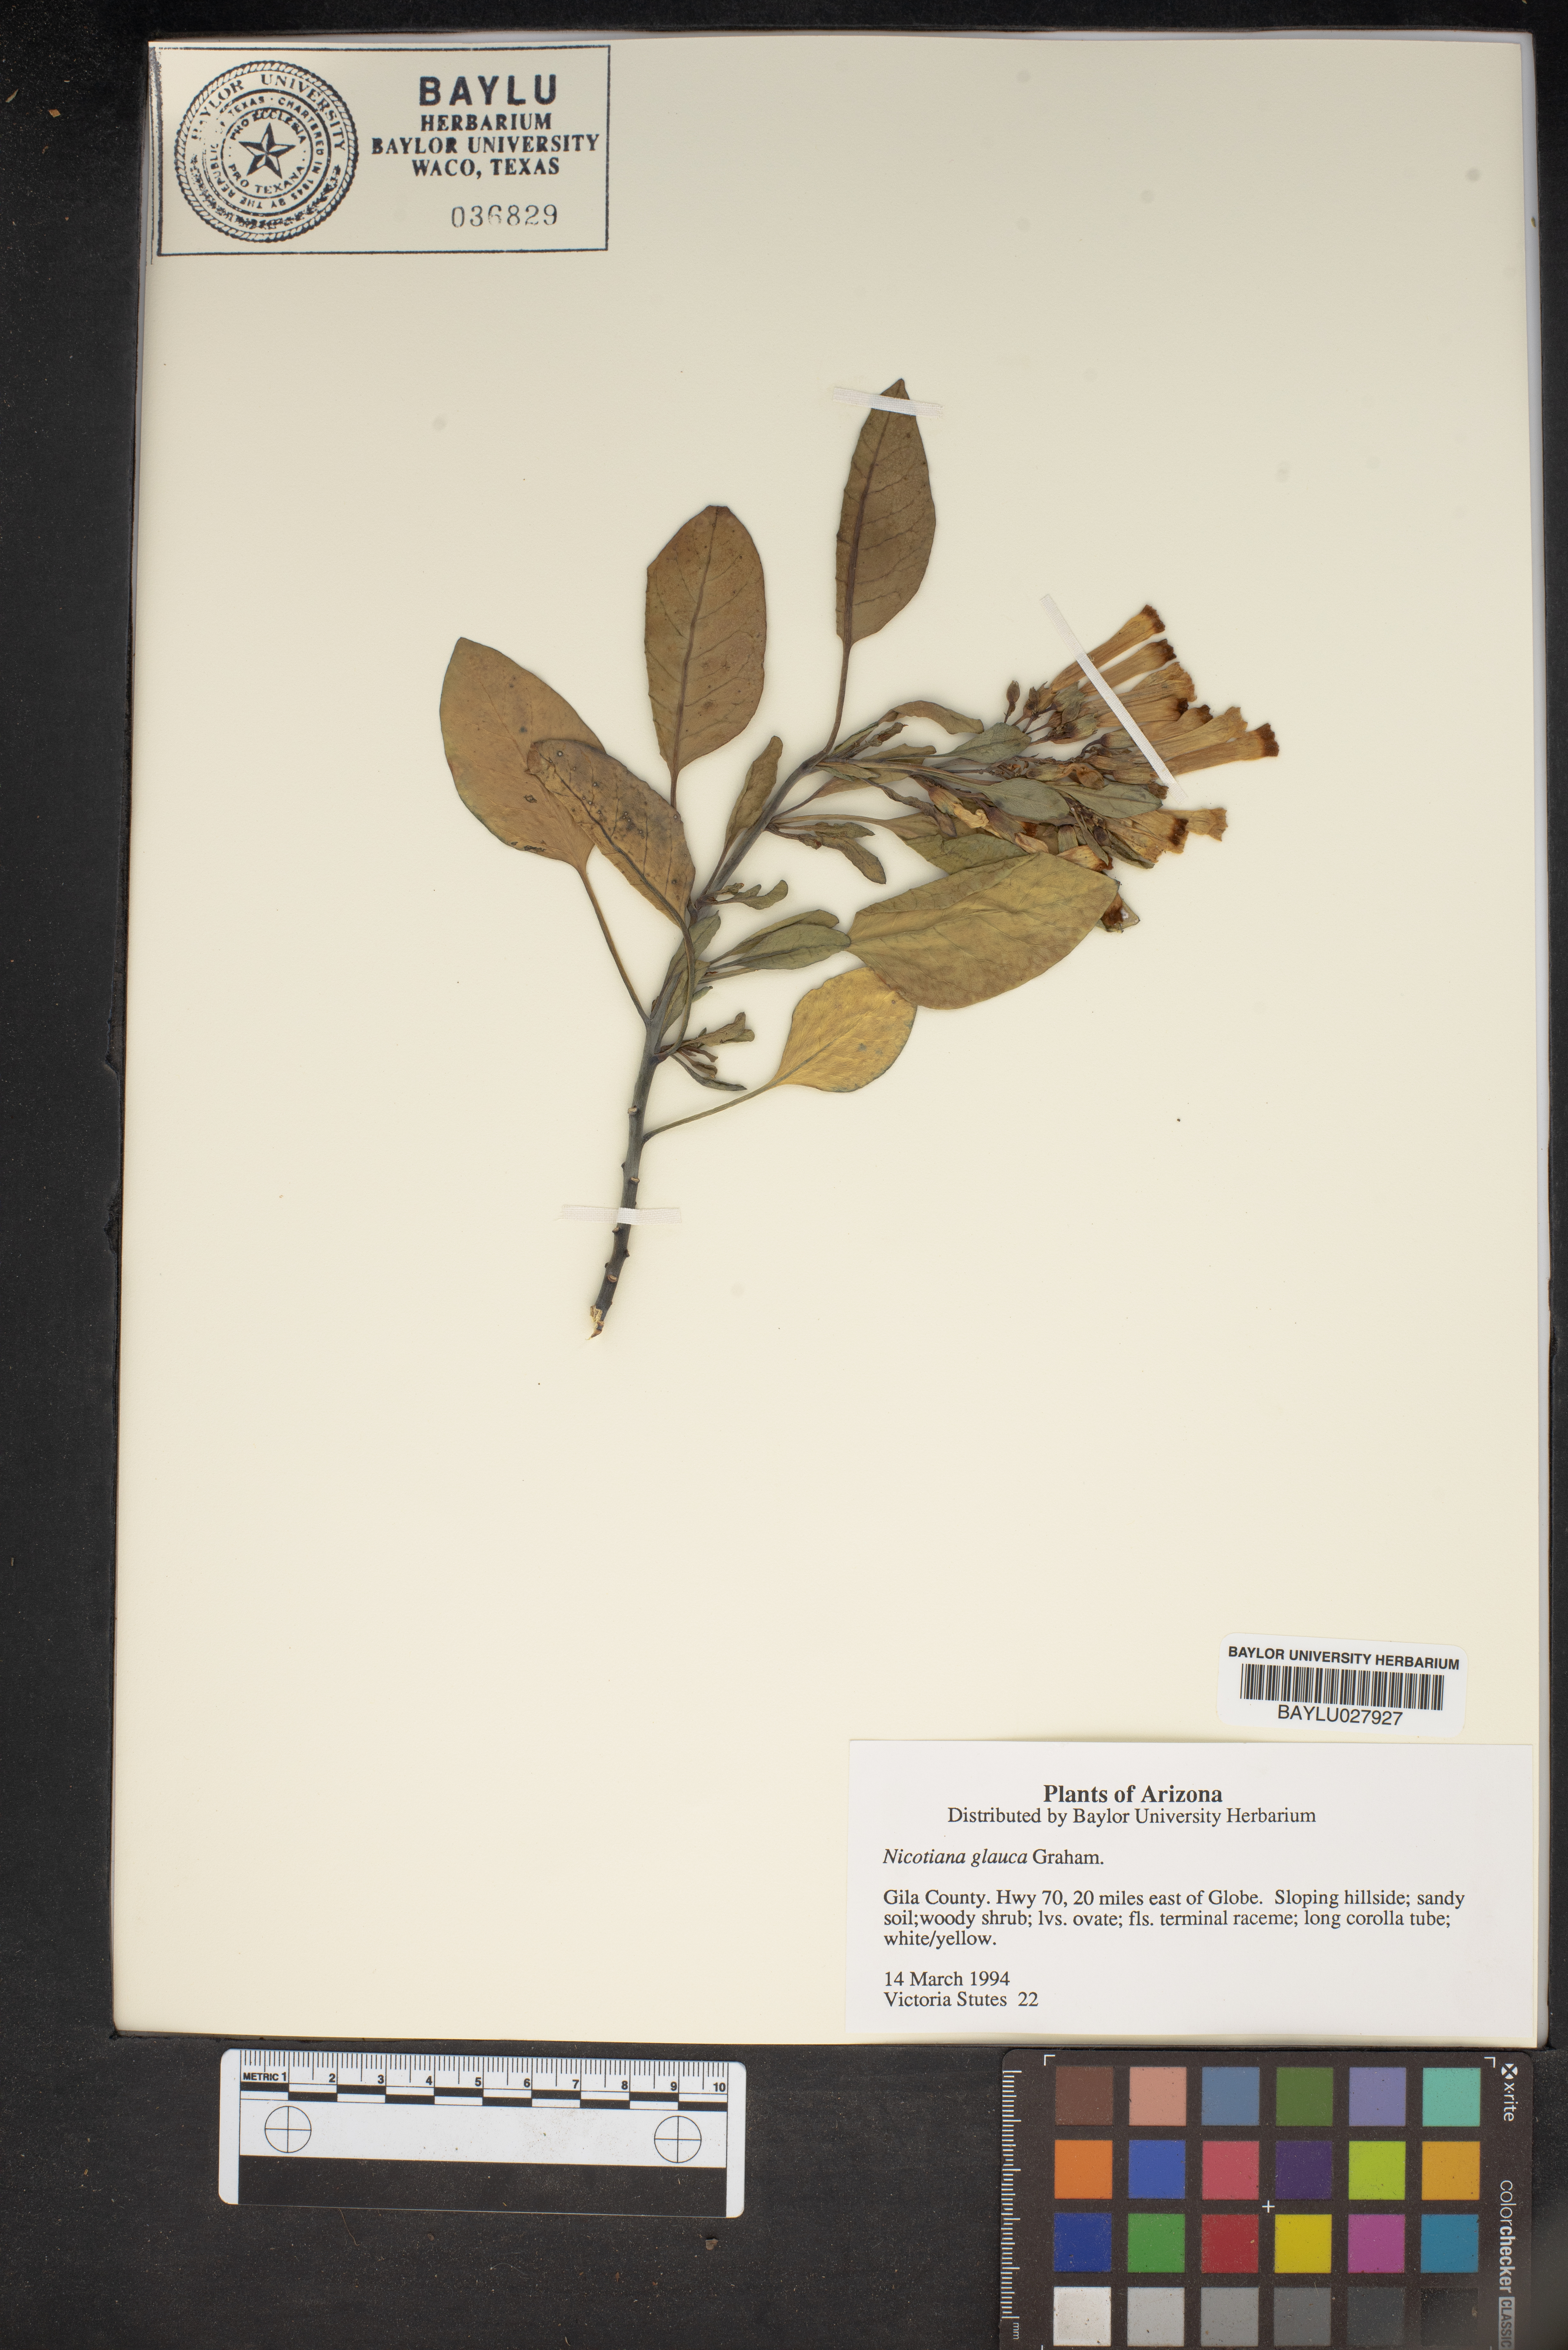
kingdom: Plantae
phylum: Tracheophyta
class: Magnoliopsida
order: Solanales
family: Solanaceae
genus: Nicotiana
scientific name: Nicotiana glauca
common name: Tree tobacco
